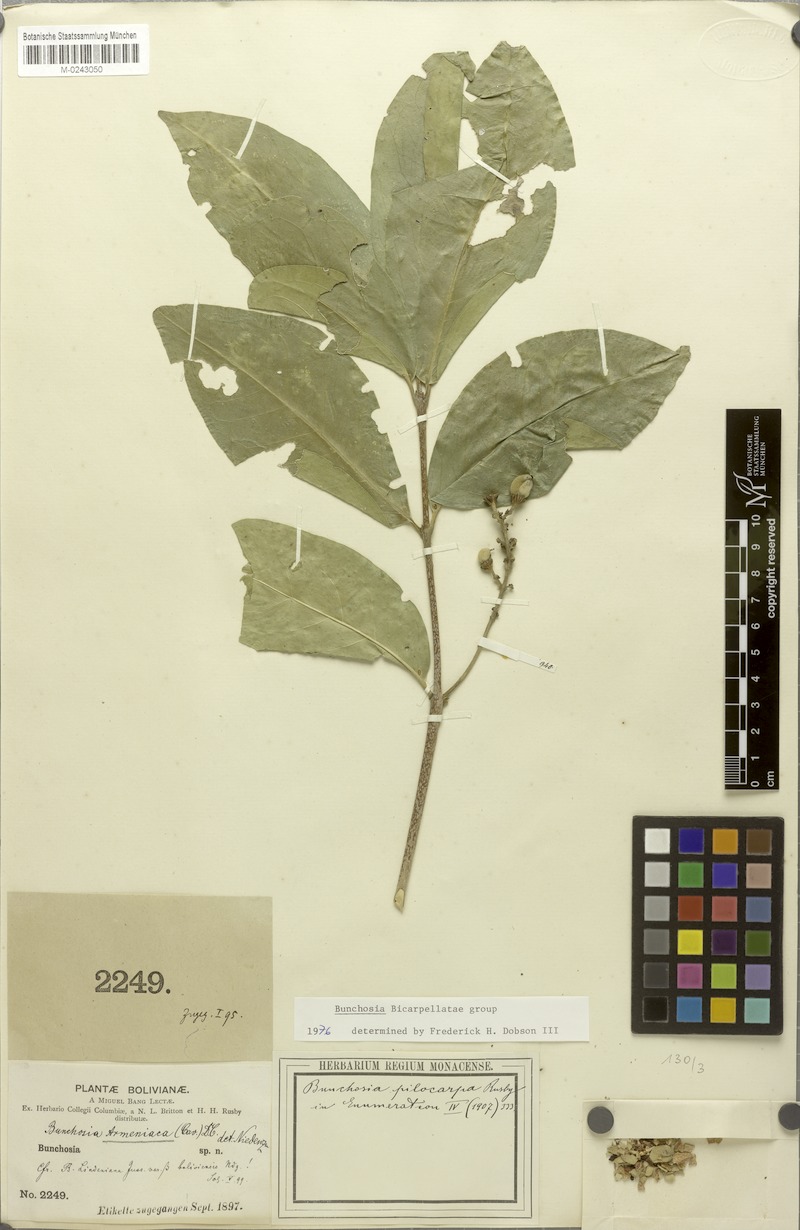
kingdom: Plantae
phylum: Tracheophyta
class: Magnoliopsida
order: Malpighiales
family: Malpighiaceae
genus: Bunchosia
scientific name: Bunchosia pilocarpa
